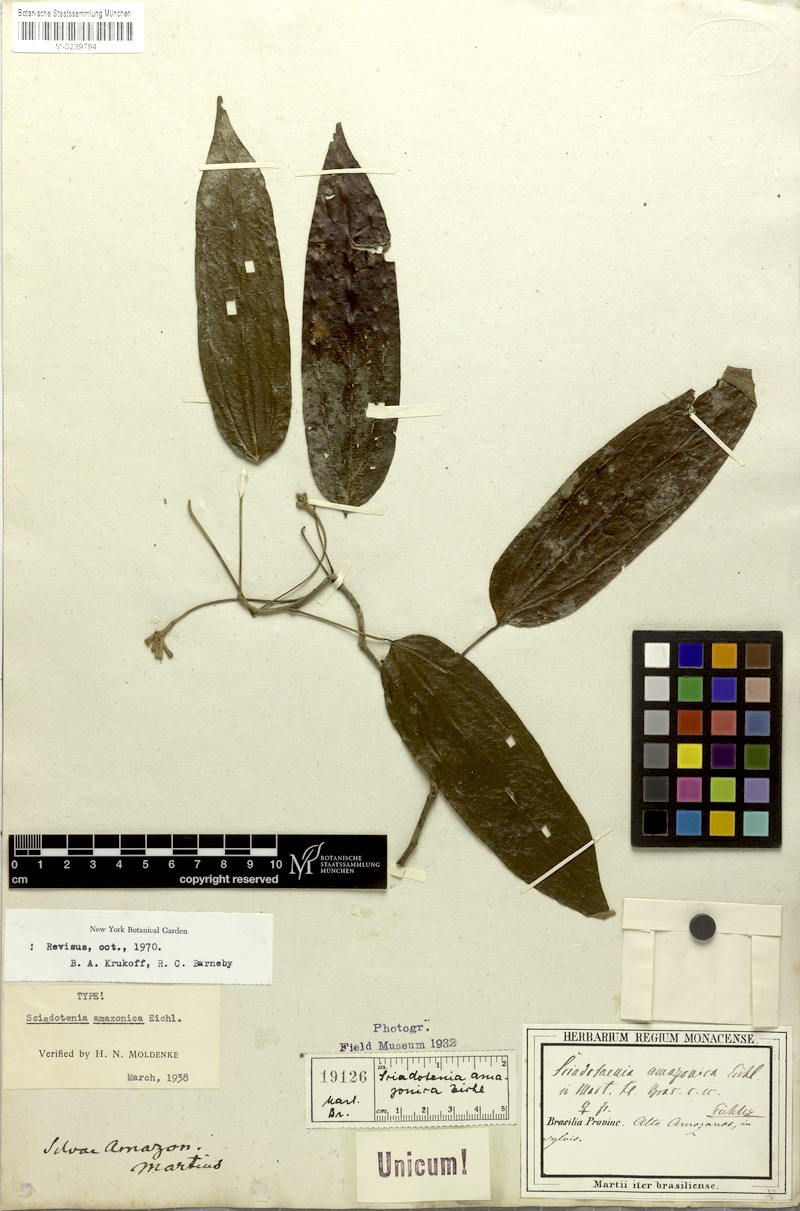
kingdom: Plantae
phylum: Tracheophyta
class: Magnoliopsida
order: Ranunculales
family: Menispermaceae
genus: Sciadotenia
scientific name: Sciadotenia amazonica
